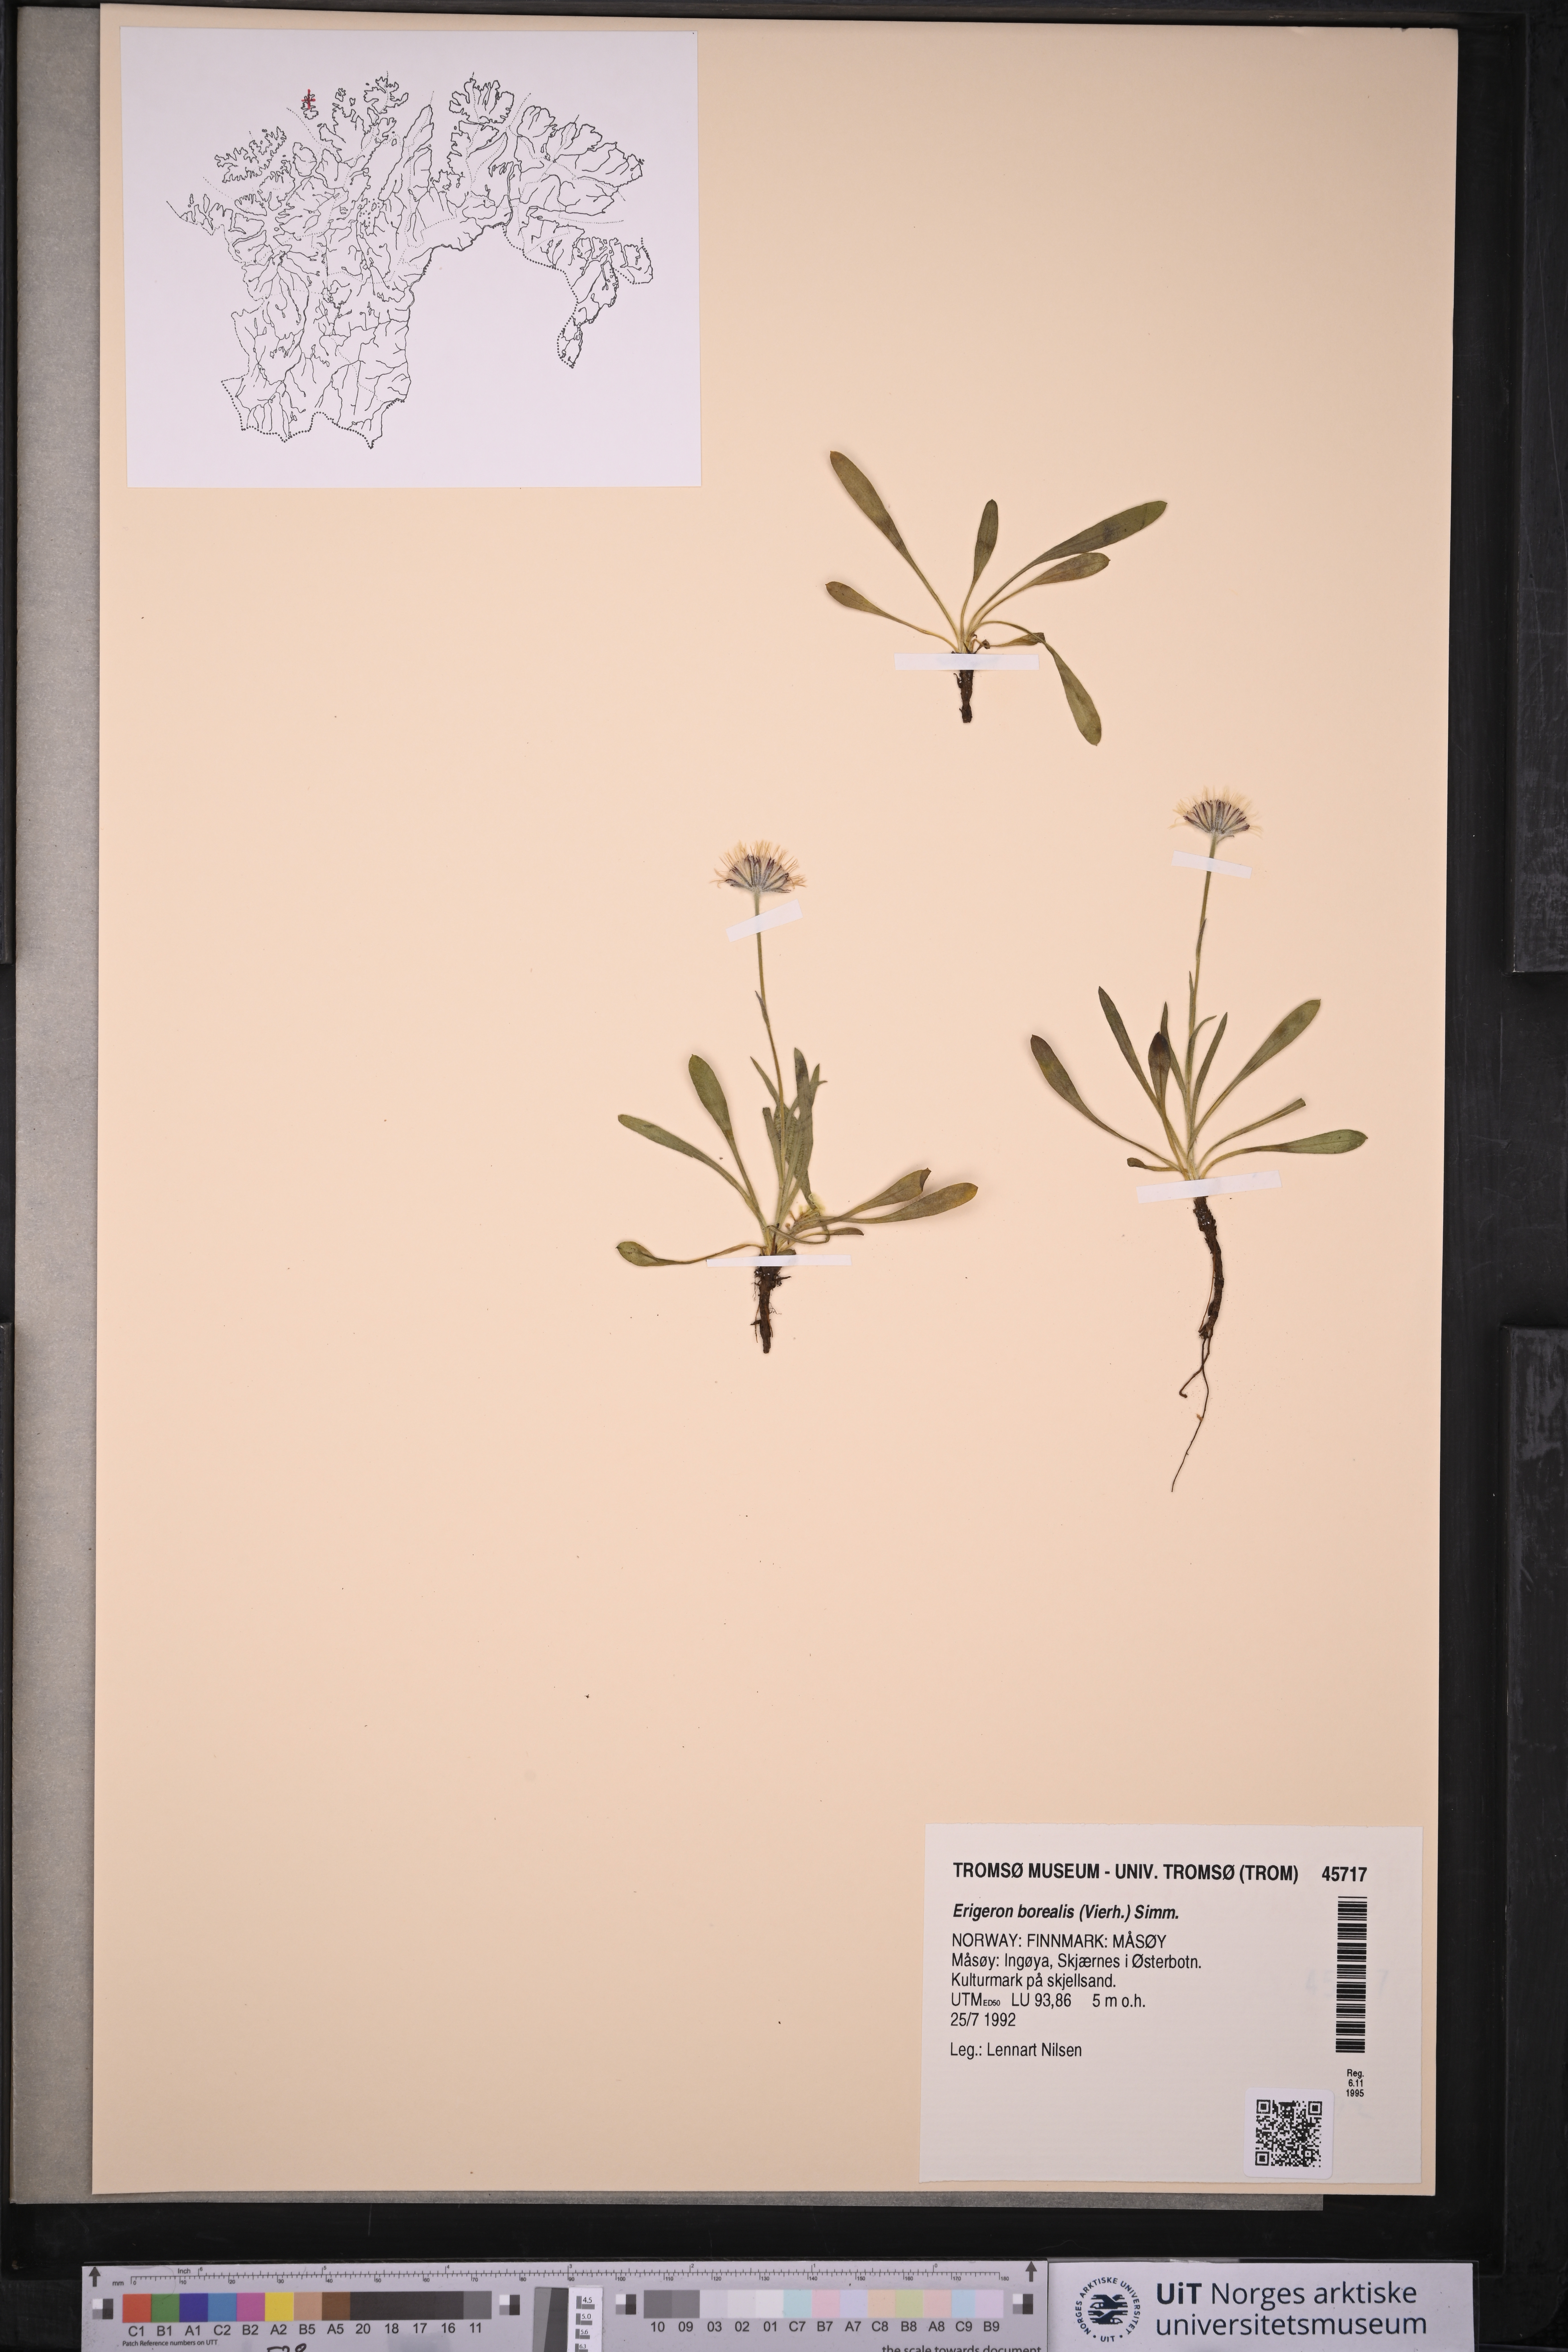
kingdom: Plantae
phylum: Tracheophyta
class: Magnoliopsida
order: Asterales
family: Asteraceae
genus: Erigeron
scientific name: Erigeron borealis
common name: Alpine fleabane
